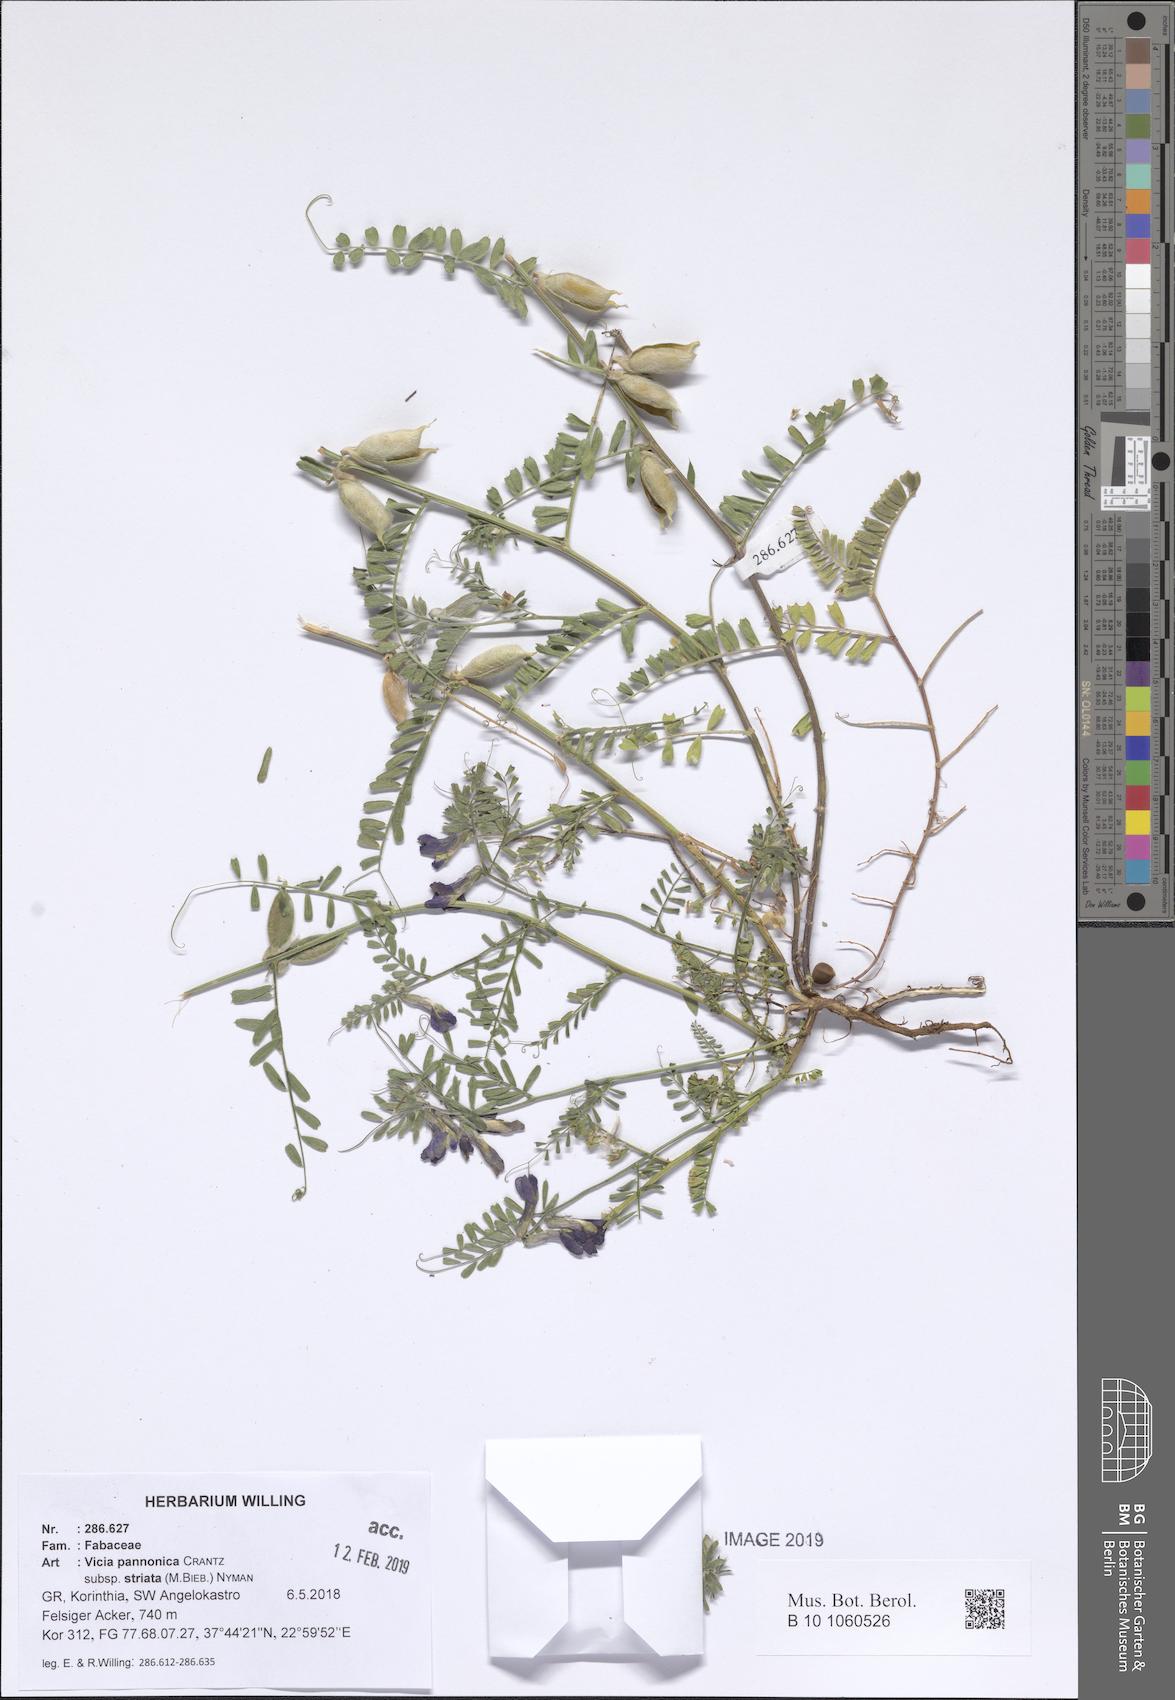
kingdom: Plantae
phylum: Tracheophyta
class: Magnoliopsida
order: Fabales
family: Fabaceae
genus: Vicia
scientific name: Vicia pannonica
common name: Hungarian vetch
